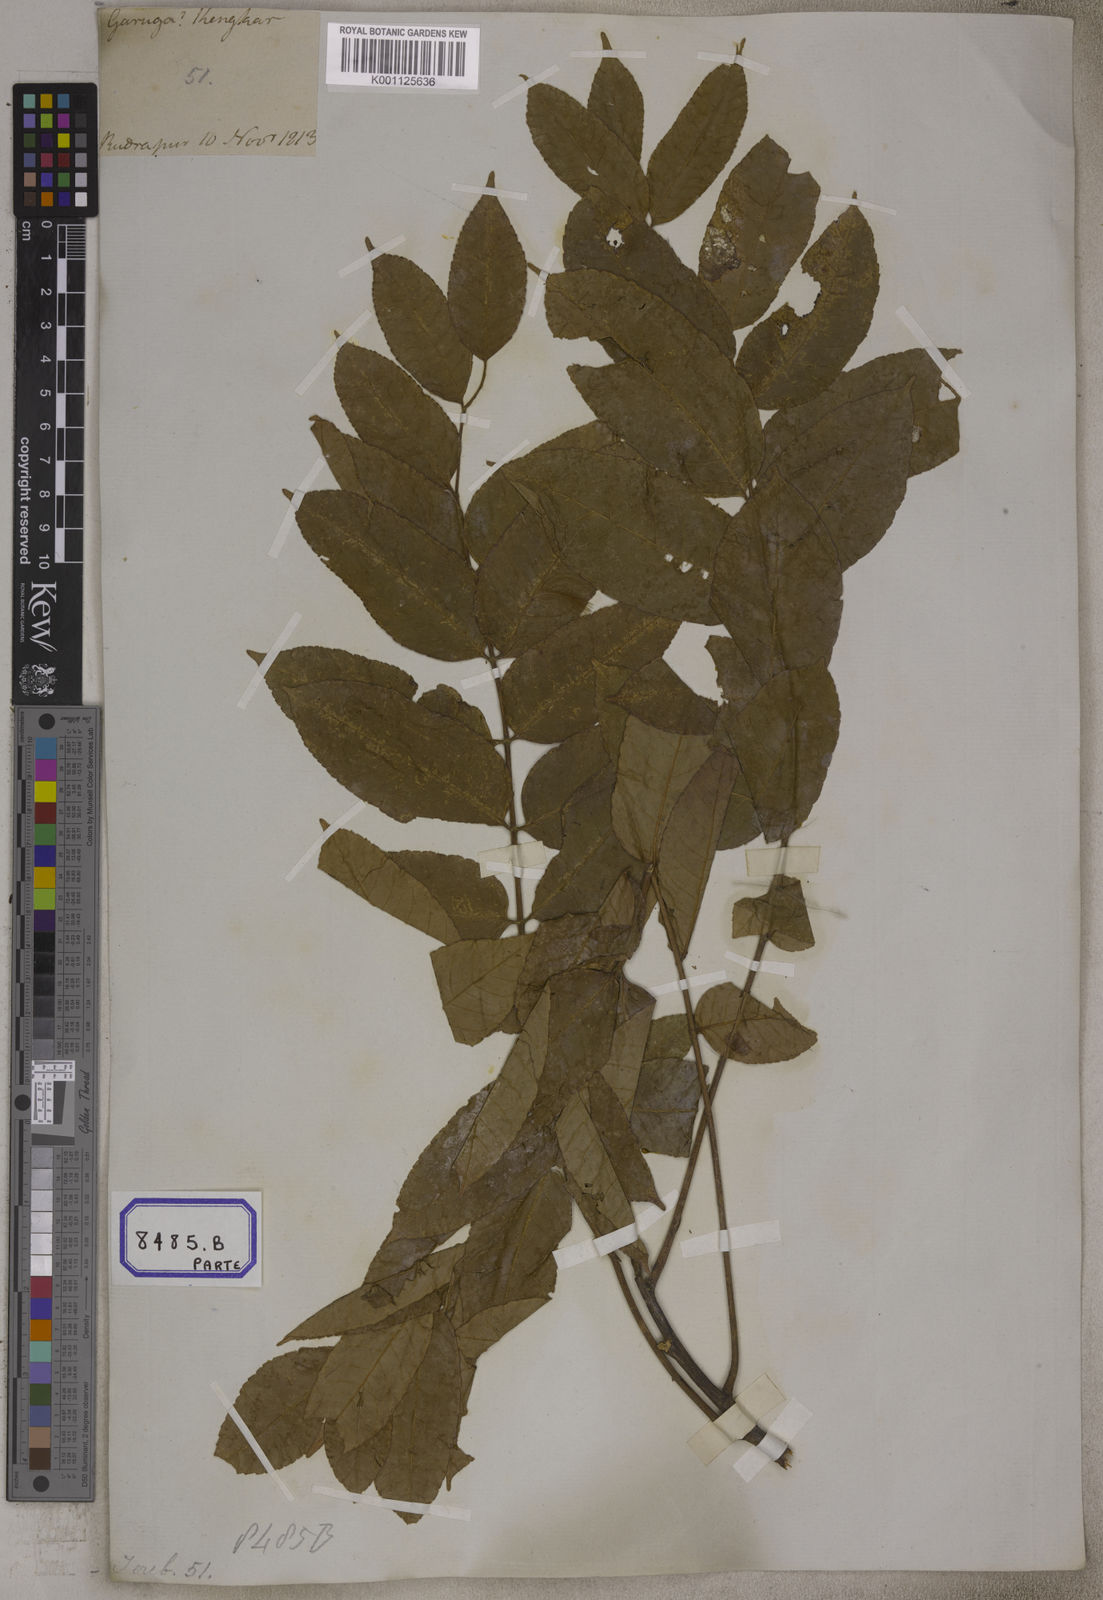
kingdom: Plantae
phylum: Tracheophyta
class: Magnoliopsida
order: Sapindales
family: Burseraceae
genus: Garuga
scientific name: Garuga pinnata
